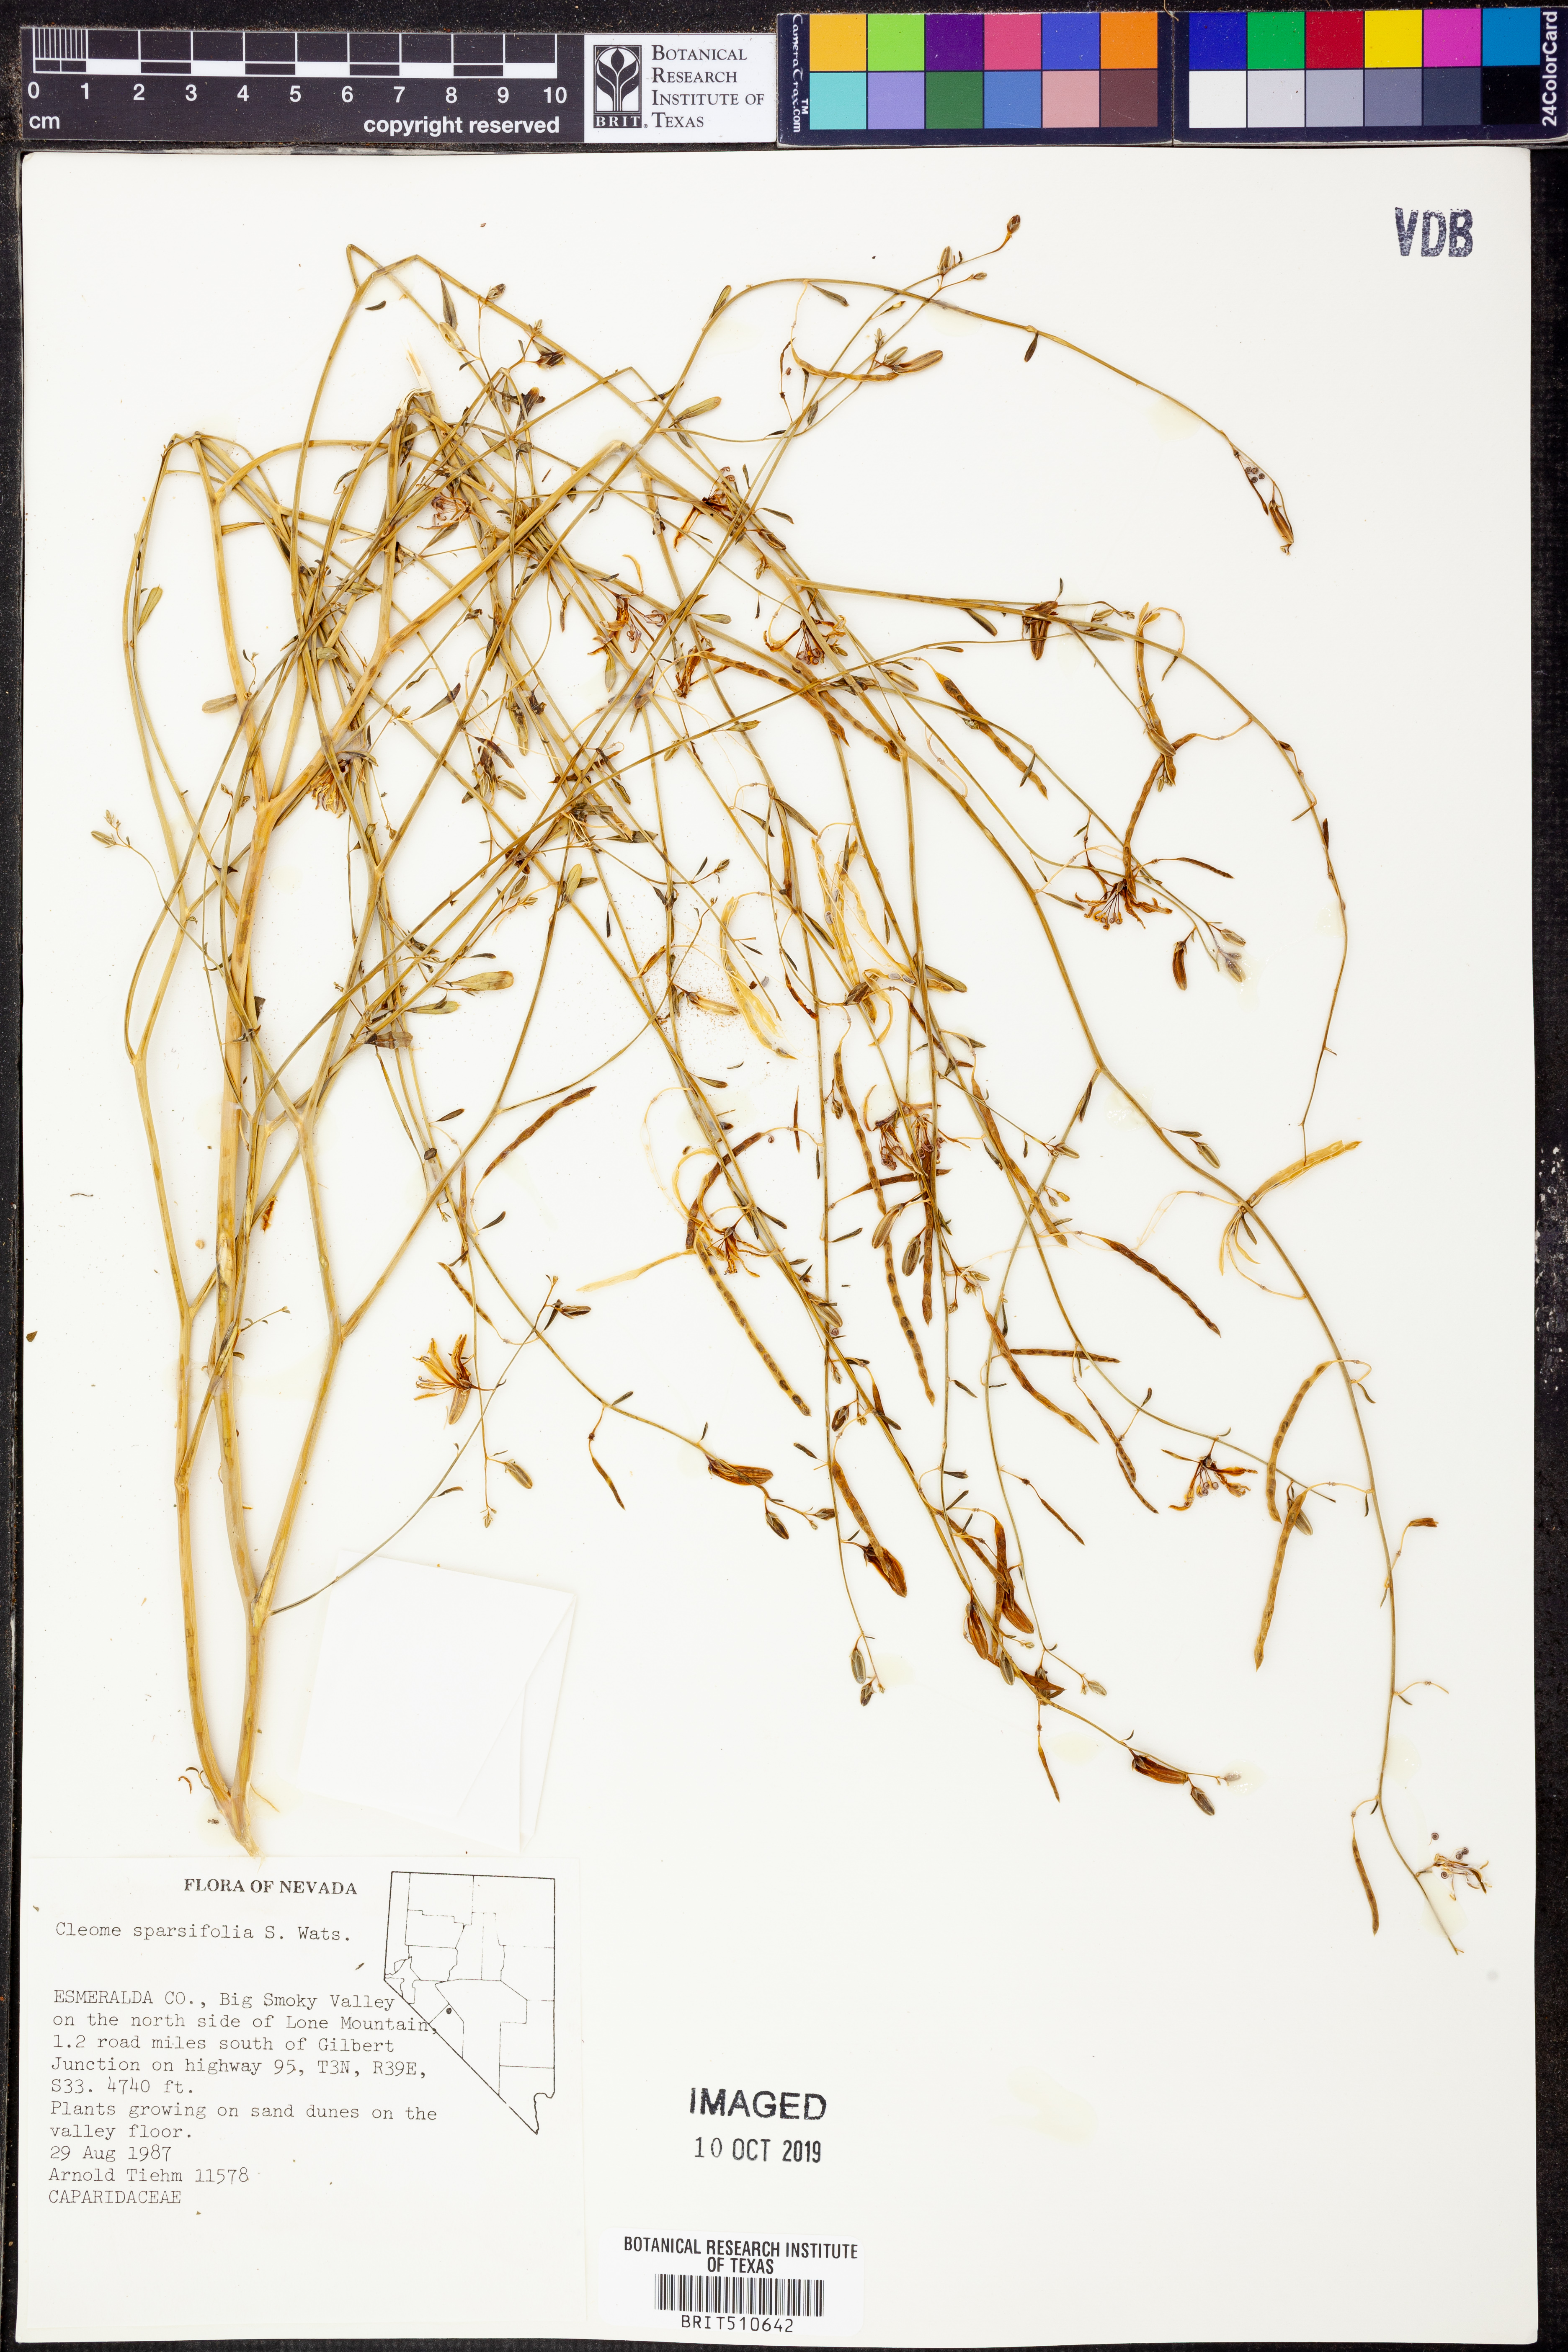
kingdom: Plantae
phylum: Tracheophyta
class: Magnoliopsida
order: Brassicales
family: Cleomaceae
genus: Cleomella
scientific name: Cleomella sparsifolia
